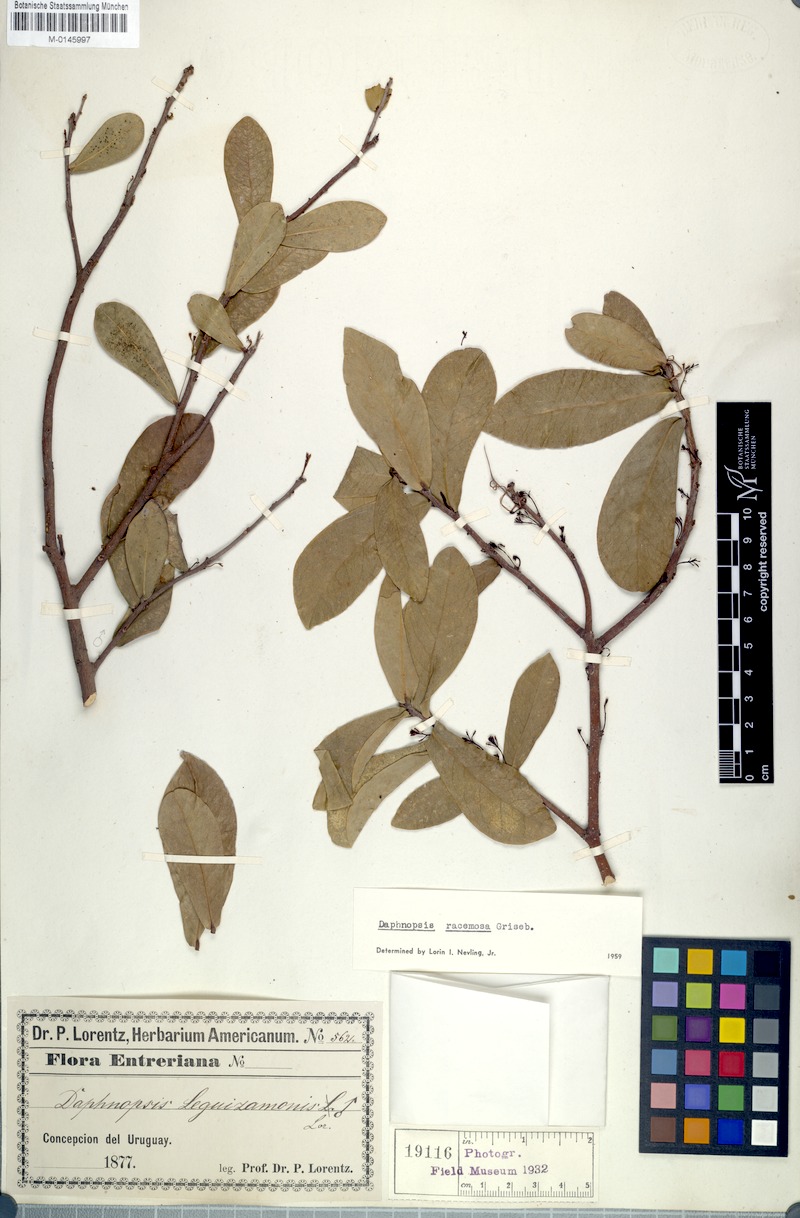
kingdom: Plantae
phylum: Tracheophyta
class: Magnoliopsida
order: Malvales
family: Thymelaeaceae
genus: Daphnopsis
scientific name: Daphnopsis racemosa
